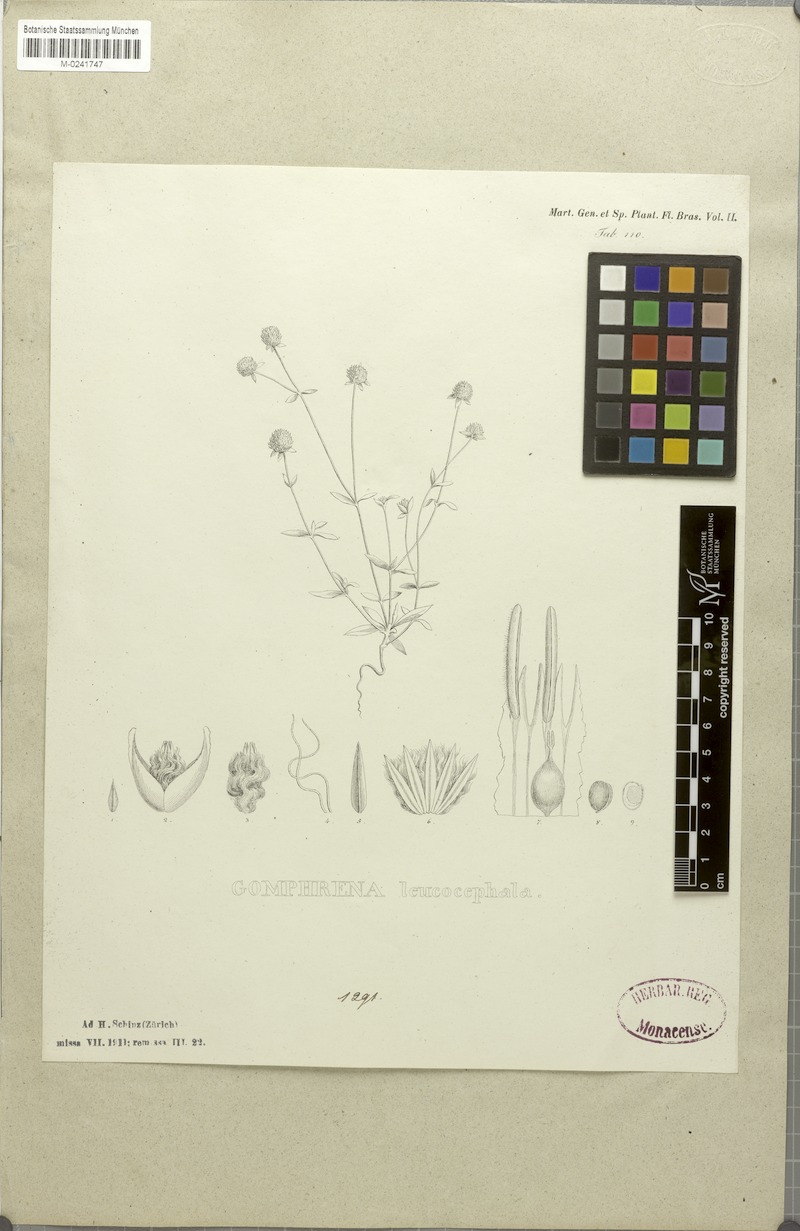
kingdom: Plantae
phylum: Tracheophyta
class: Magnoliopsida
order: Caryophyllales
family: Amaranthaceae
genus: Gomphrena
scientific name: Gomphrena leucocephala
